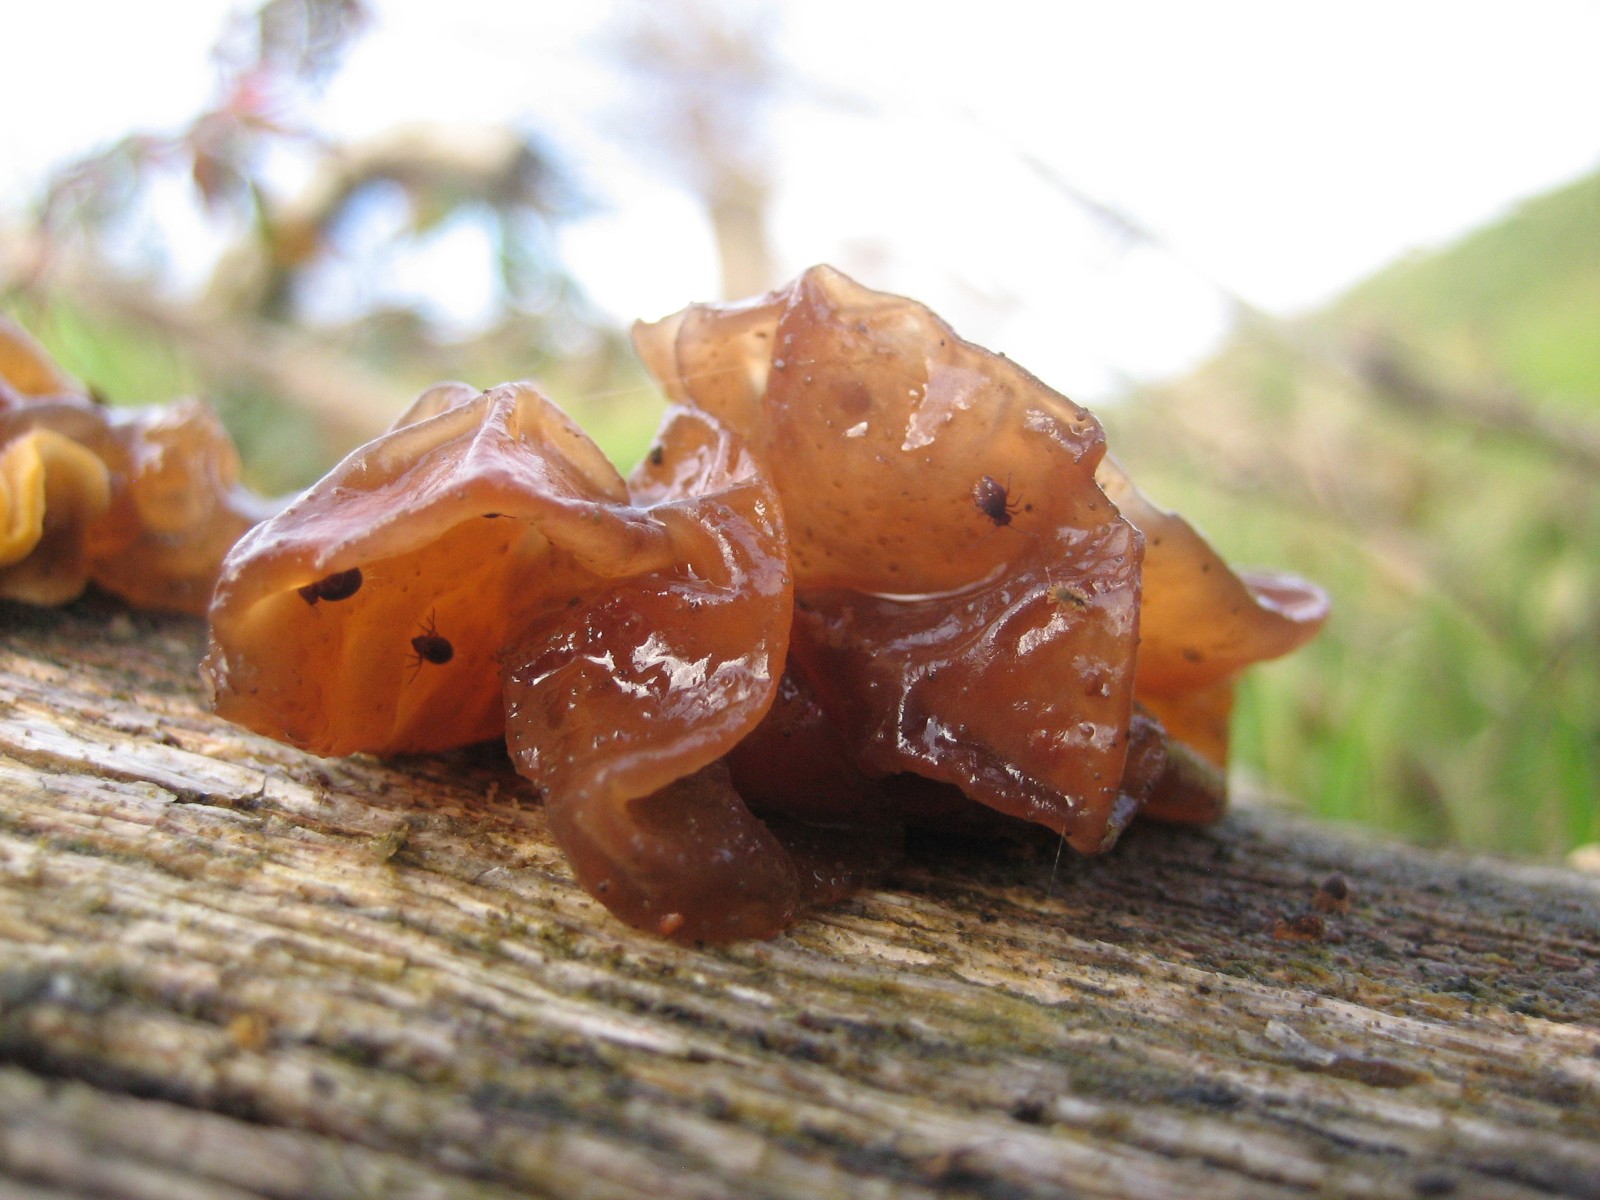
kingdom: Fungi
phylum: Basidiomycota
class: Tremellomycetes
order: Tremellales
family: Tremellaceae
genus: Phaeotremella
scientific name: Phaeotremella frondosa
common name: kæmpe-bævresvamp
